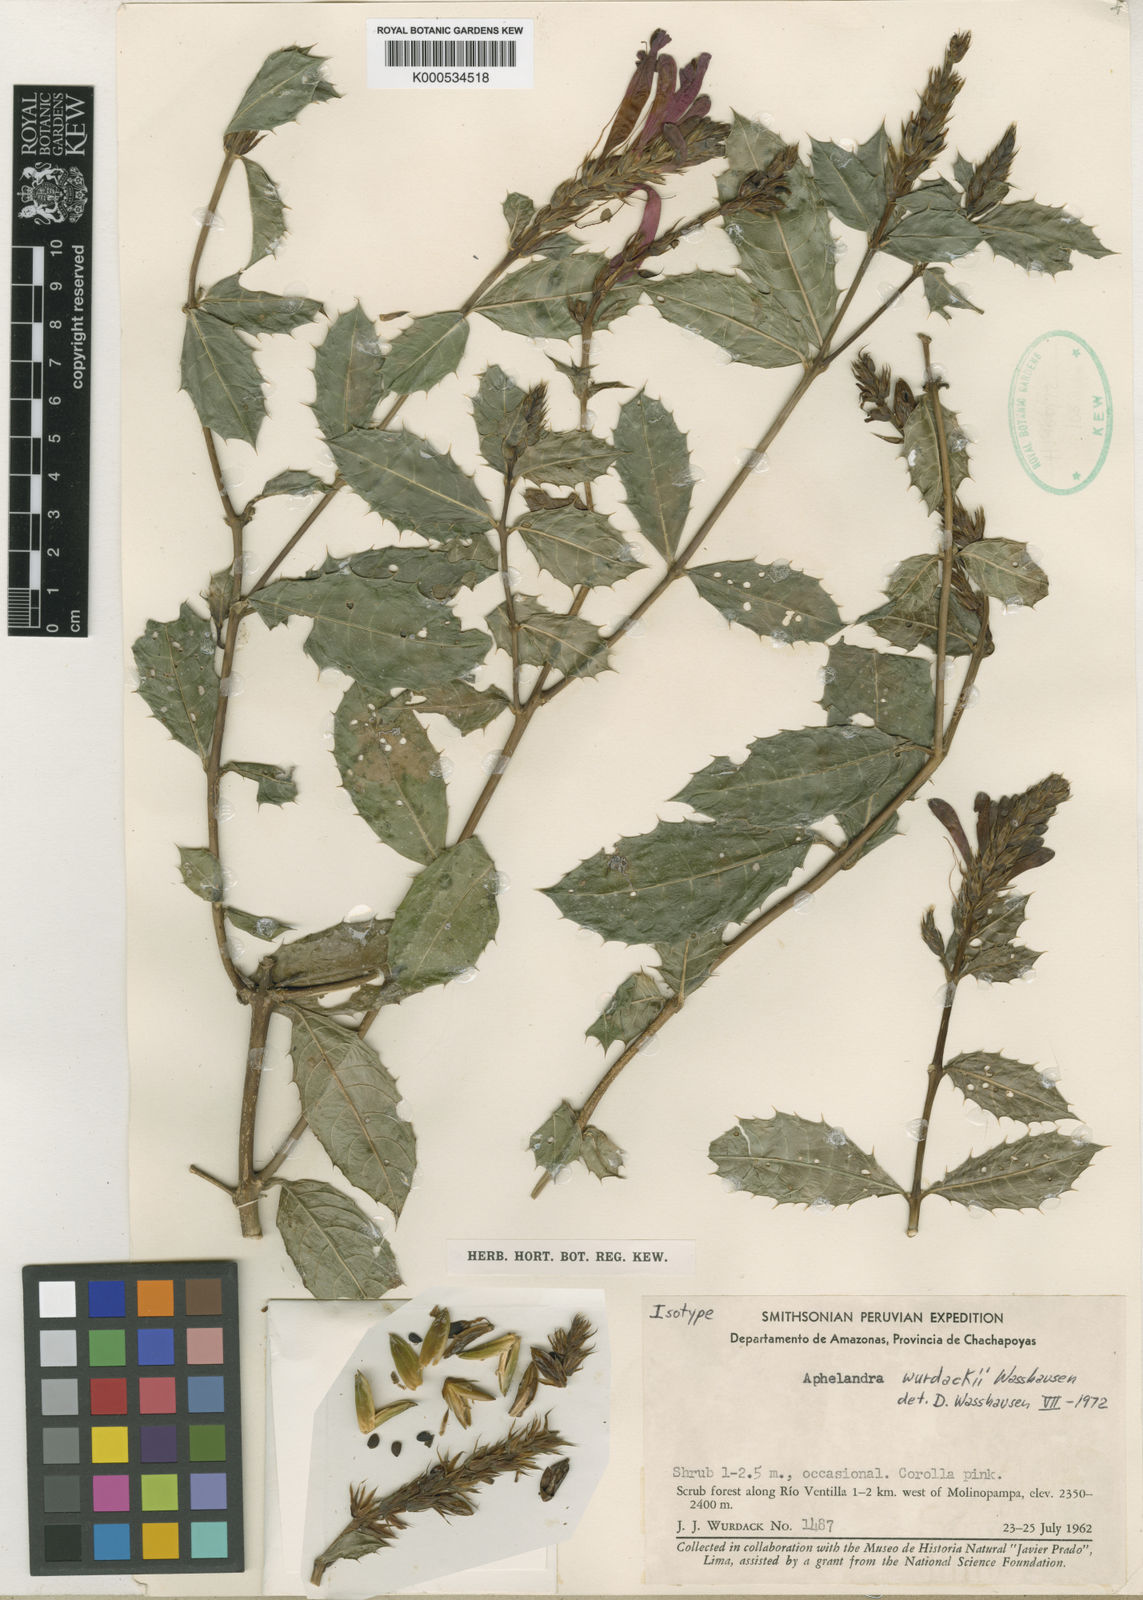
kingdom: Plantae
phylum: Tracheophyta
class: Magnoliopsida
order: Lamiales
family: Acanthaceae
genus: Aphelandra
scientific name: Aphelandra wurdackii
